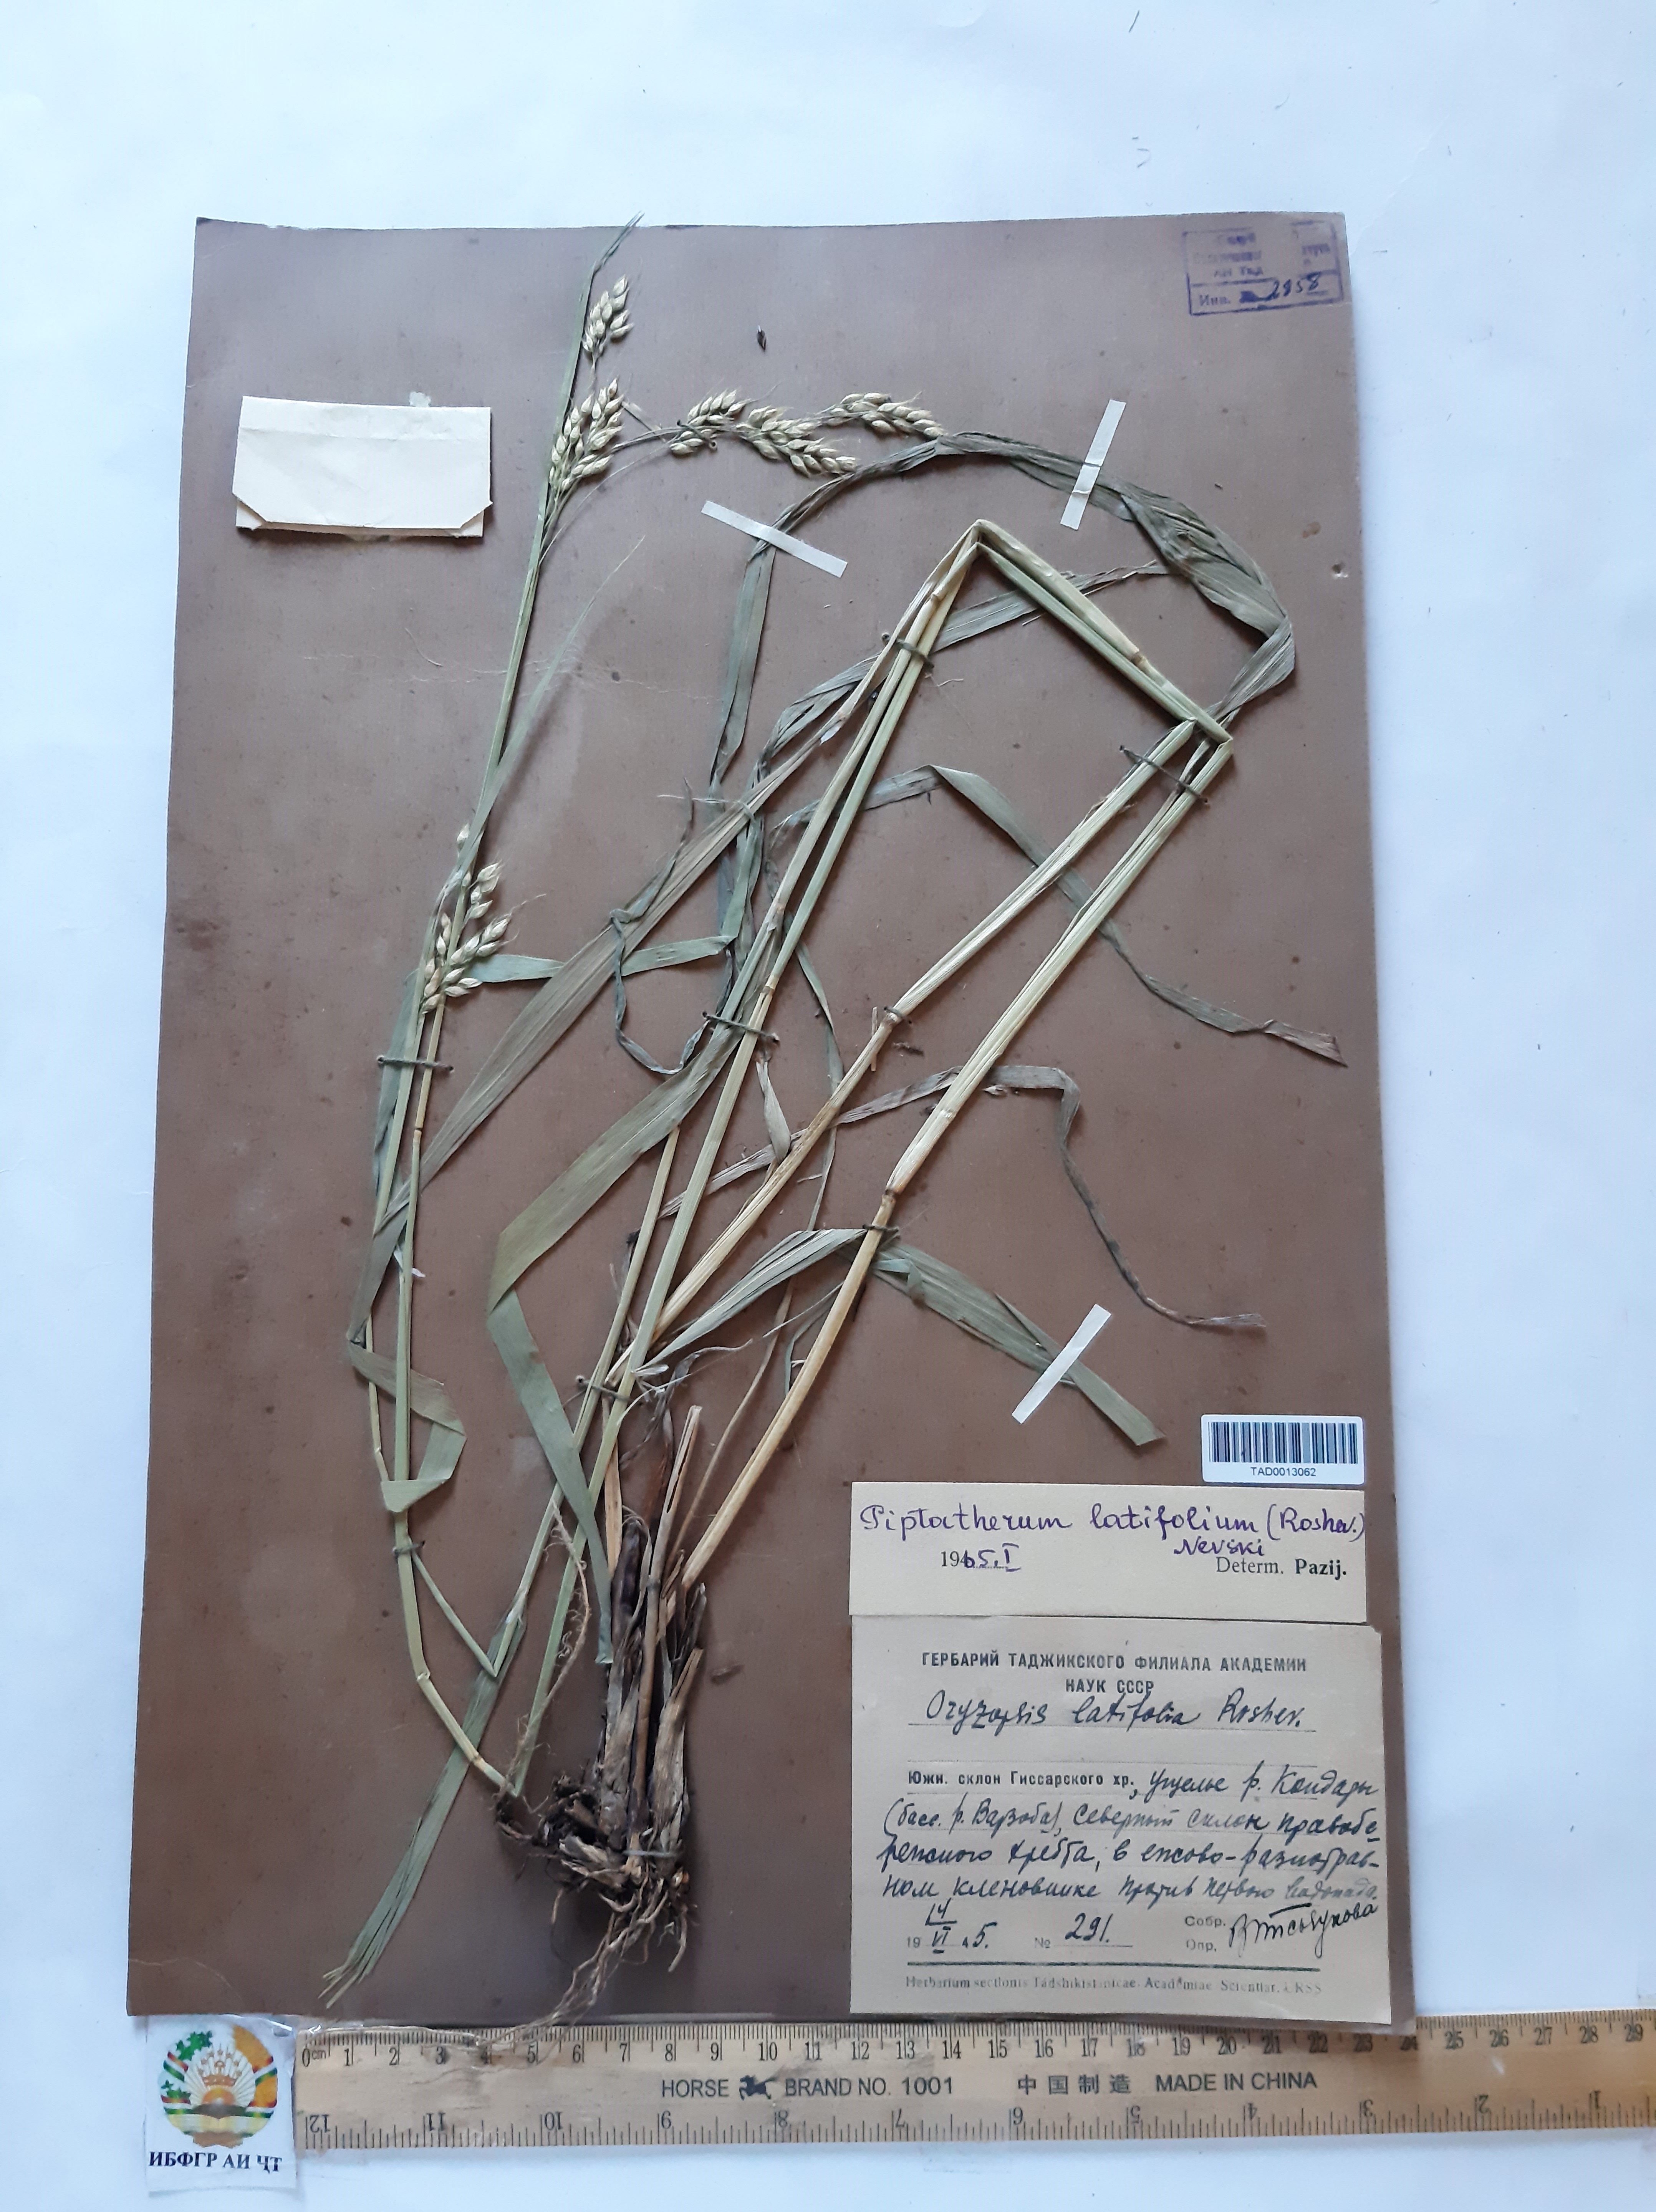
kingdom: Plantae
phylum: Tracheophyta
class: Liliopsida
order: Poales
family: Poaceae
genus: Piptatherum
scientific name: Piptatherum laterale
